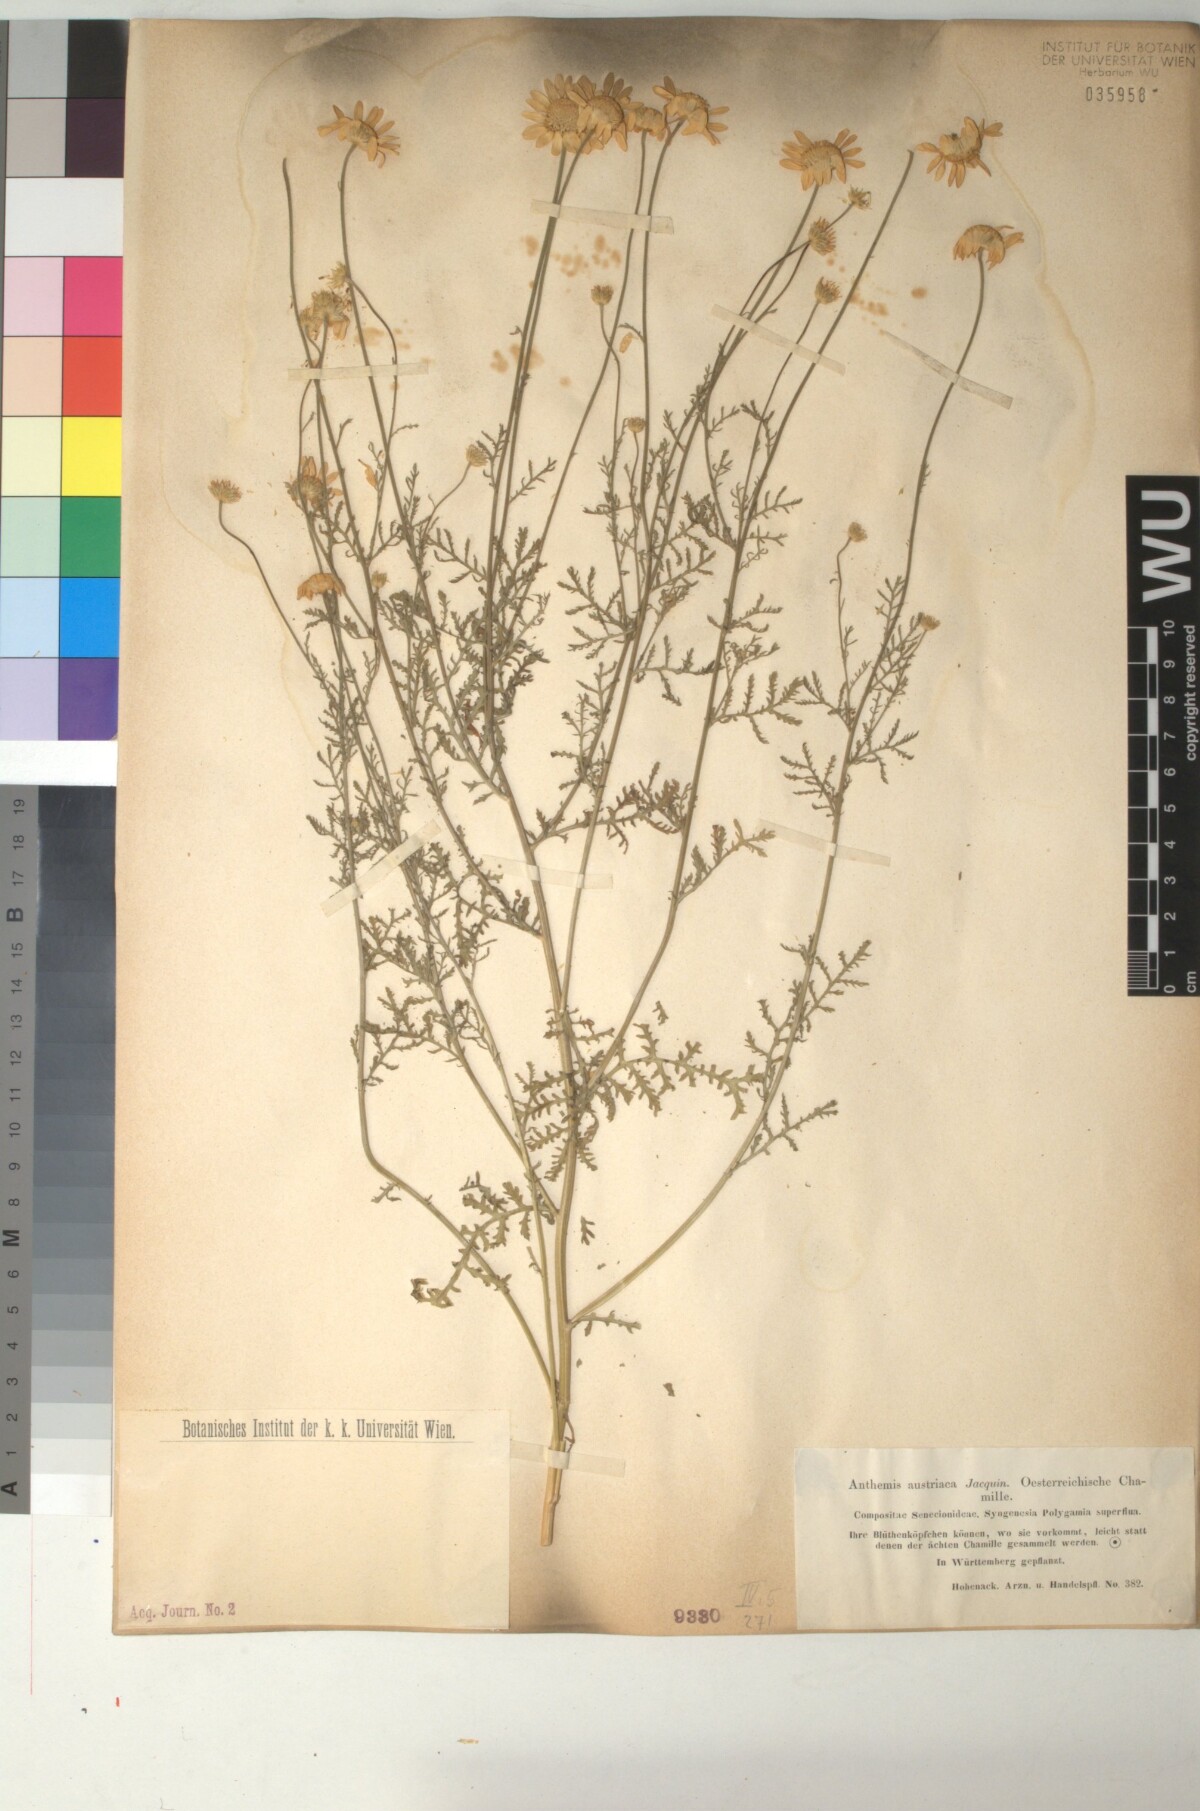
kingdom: Plantae
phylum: Tracheophyta
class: Magnoliopsida
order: Asterales
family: Asteraceae
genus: Cota
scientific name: Cota austriaca
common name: Austrian chamomile
